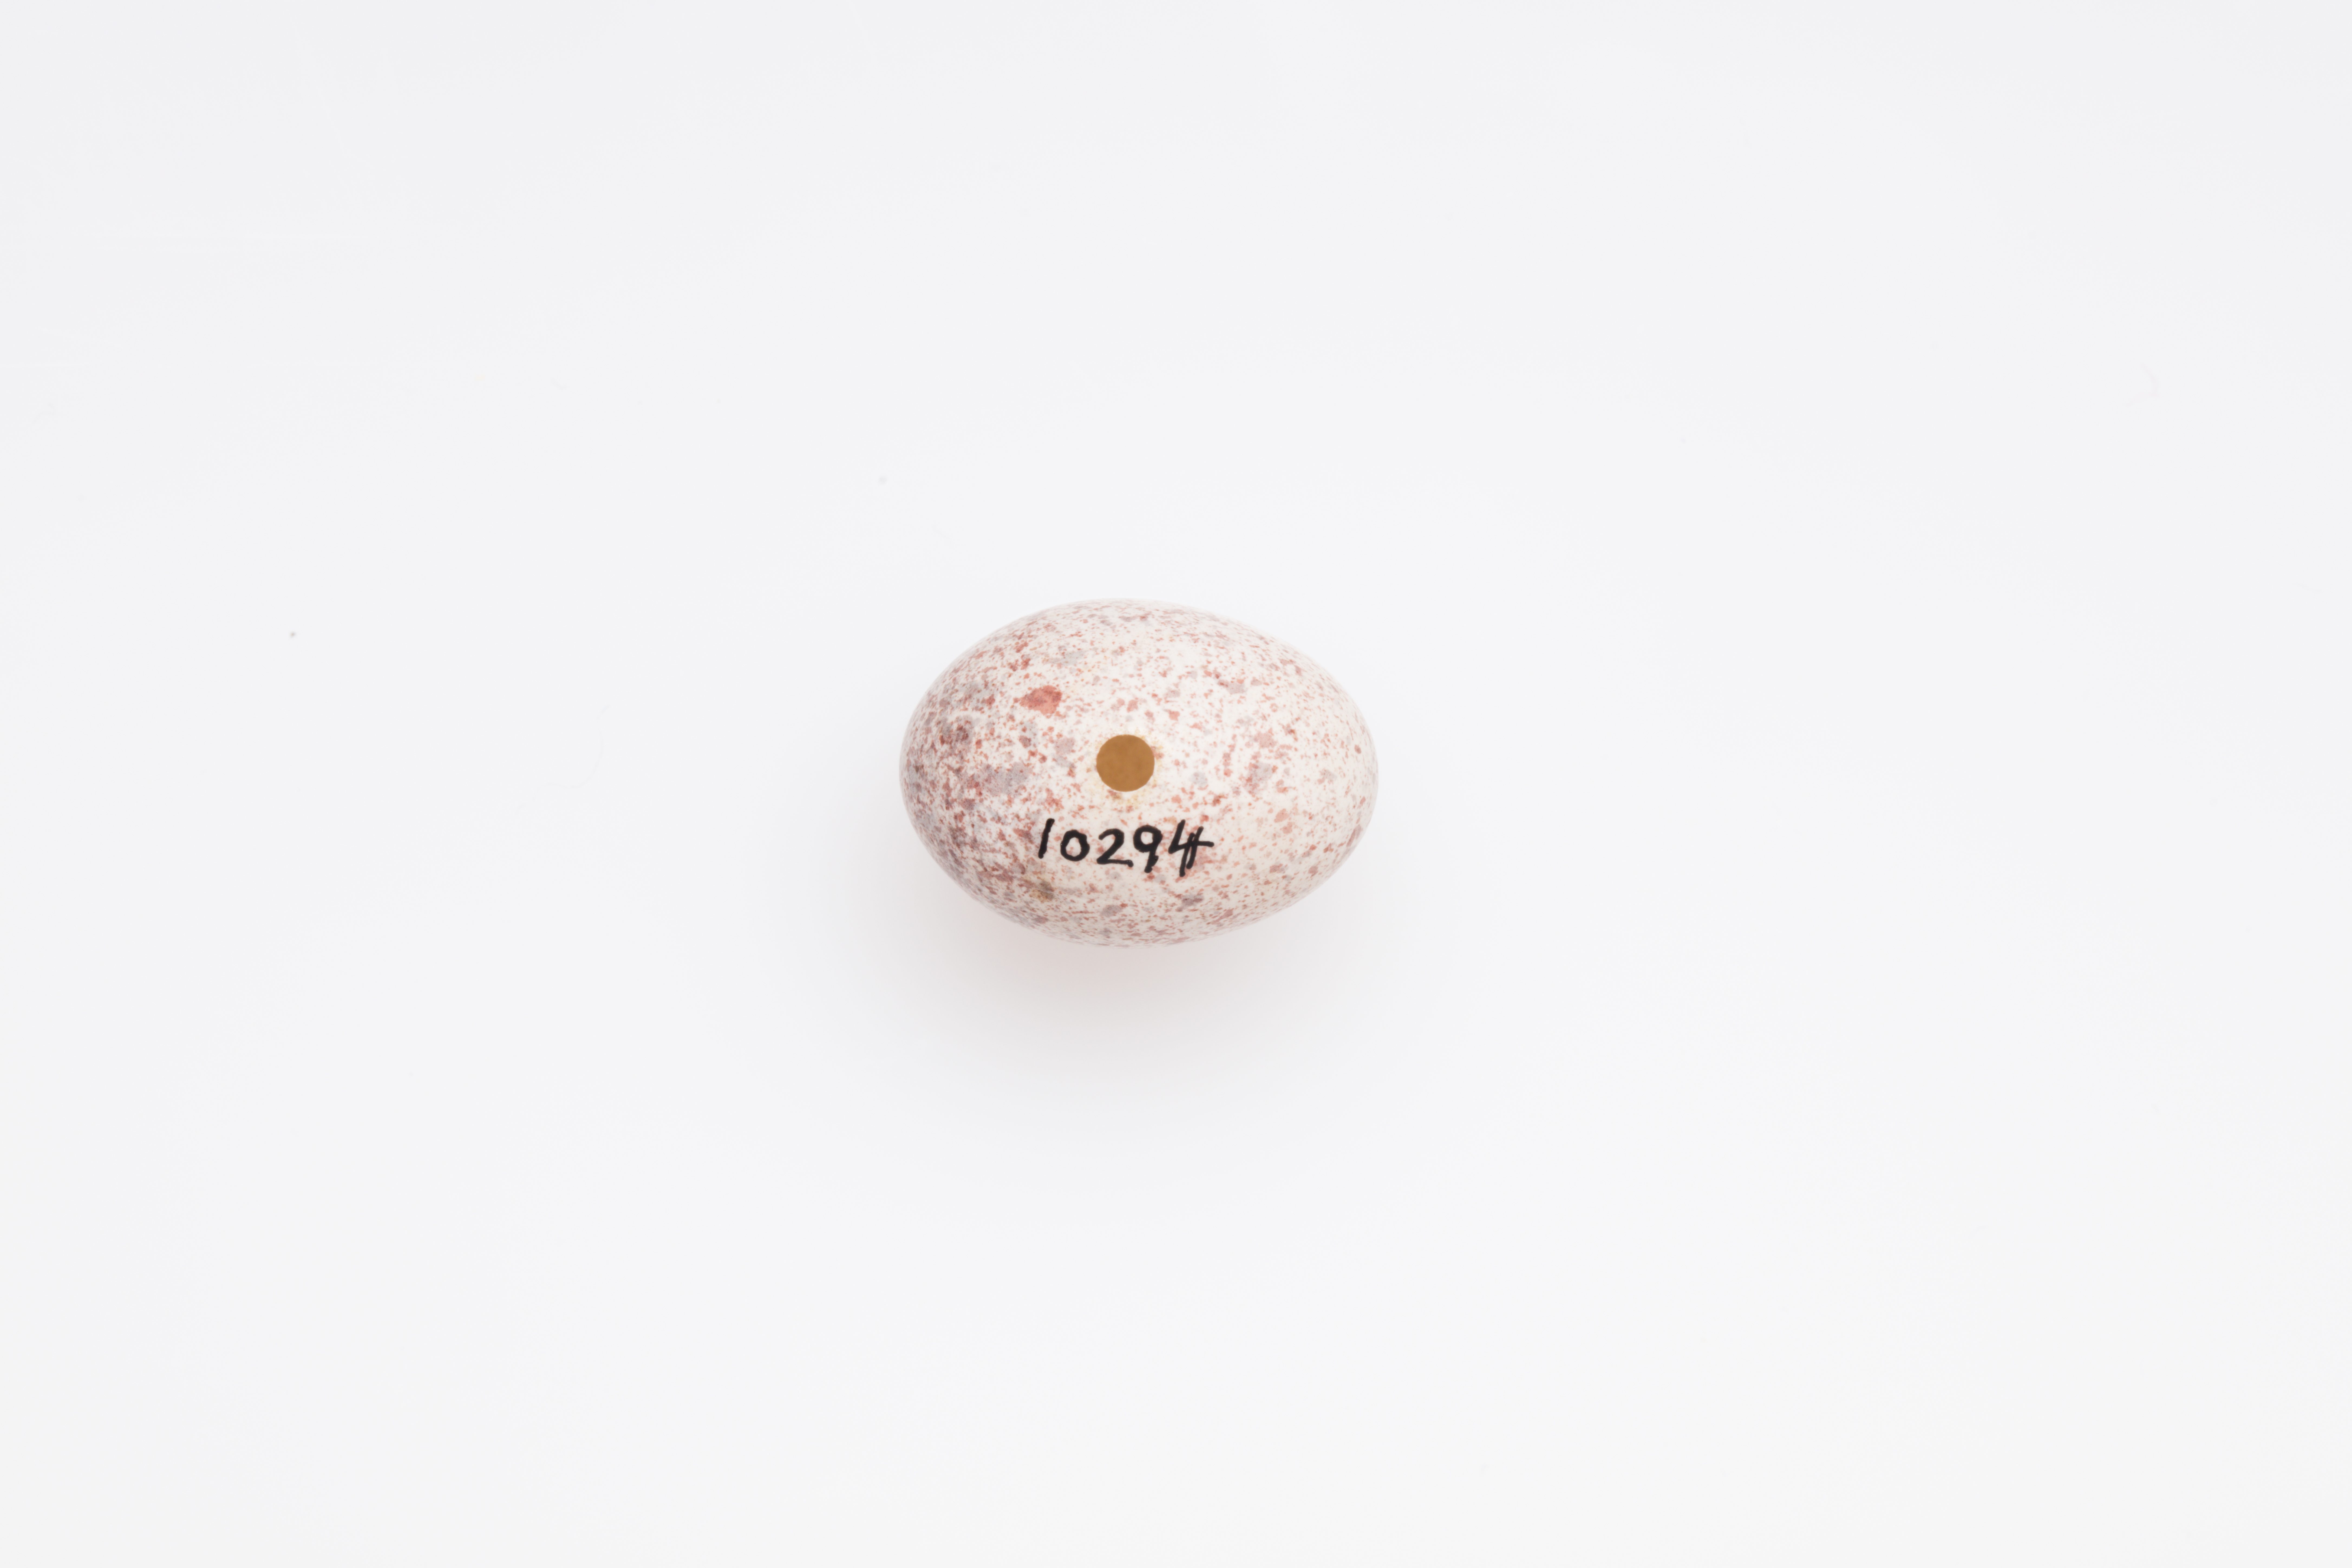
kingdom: Animalia
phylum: Chordata
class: Aves
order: Passeriformes
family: Locustellidae
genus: Megalurus
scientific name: Megalurus punctatus
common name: New zealand fernbird
